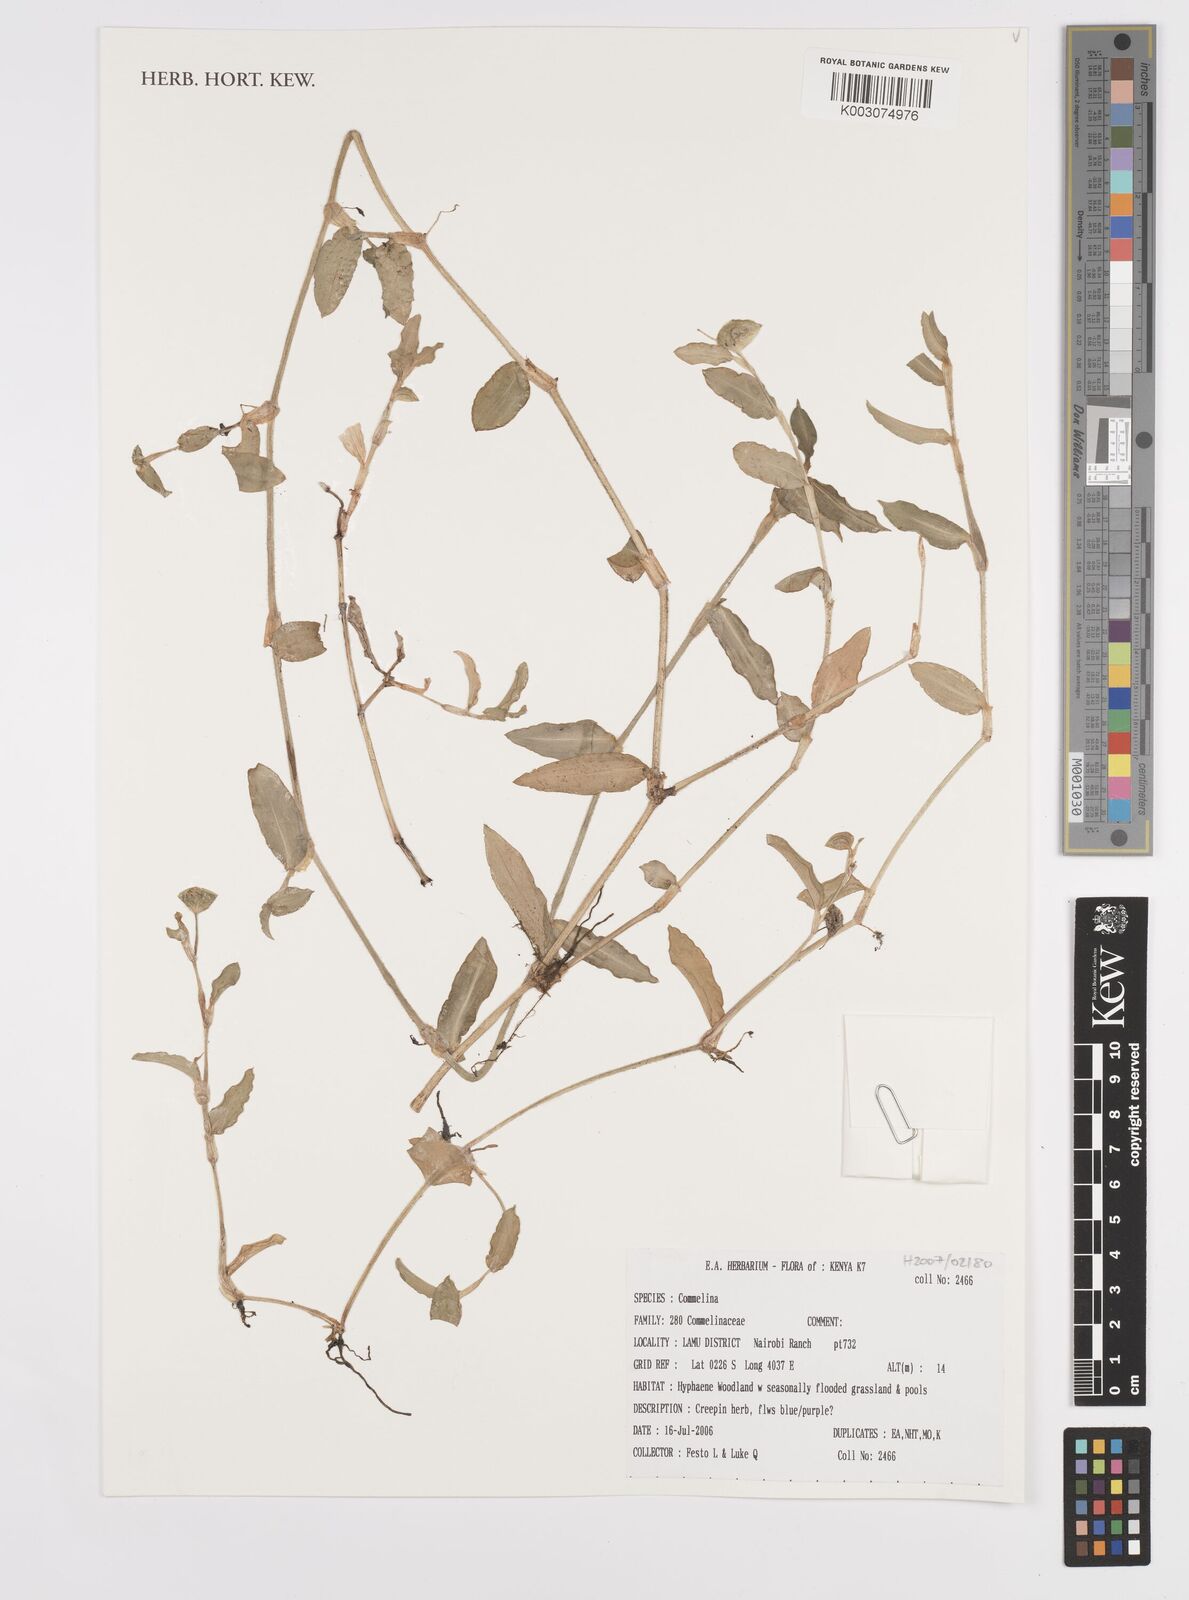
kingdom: Plantae
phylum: Tracheophyta
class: Liliopsida
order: Commelinales
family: Commelinaceae
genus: Commelina
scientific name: Commelina
